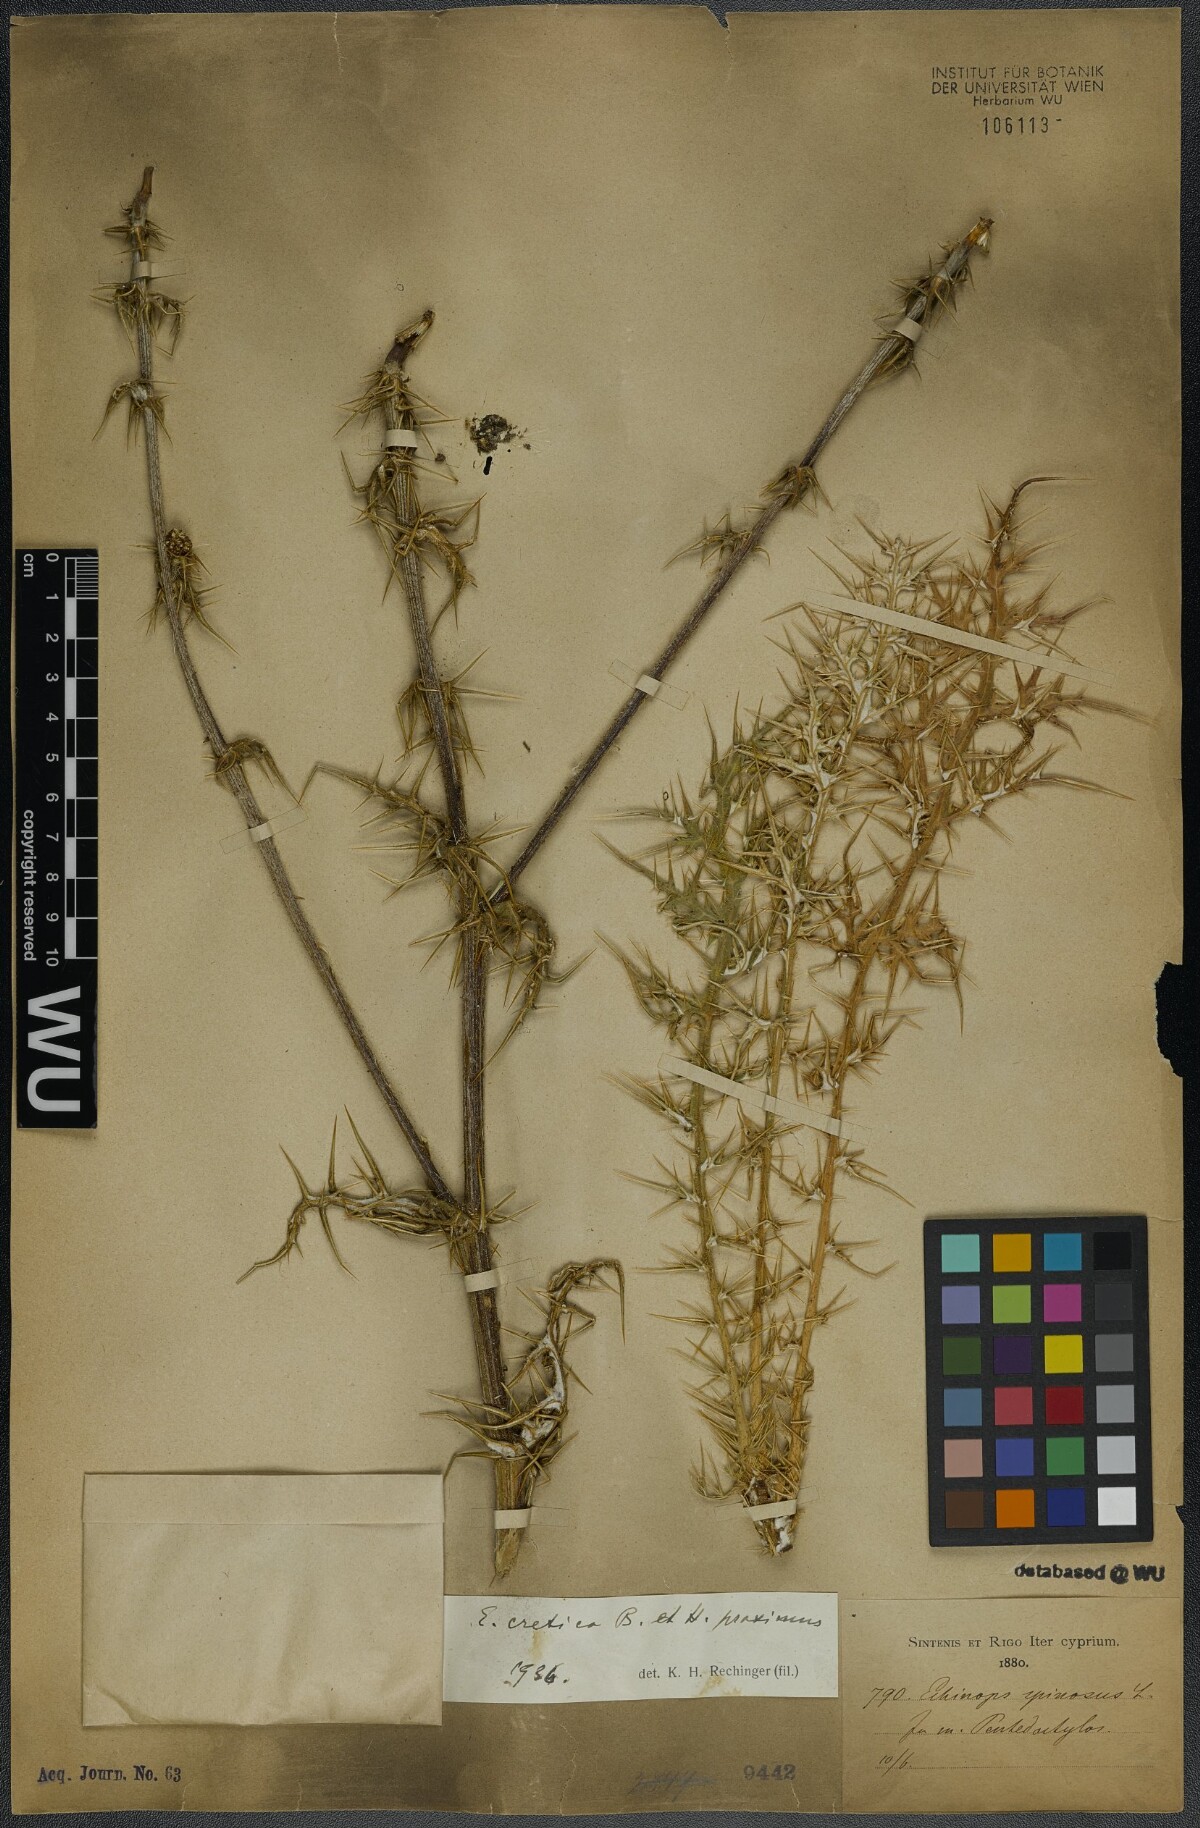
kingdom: Plantae
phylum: Tracheophyta
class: Magnoliopsida
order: Asterales
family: Asteraceae
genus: Echinops
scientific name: Echinops spinosissimus
